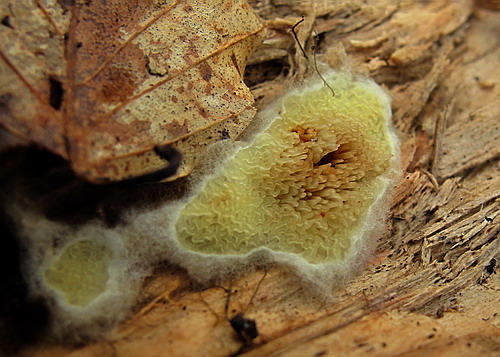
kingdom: Fungi
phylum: Basidiomycota
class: Agaricomycetes
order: Boletales
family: Paxillaceae
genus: Hydnomerulius
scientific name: Hydnomerulius pinastri
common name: pigget hussvamp
